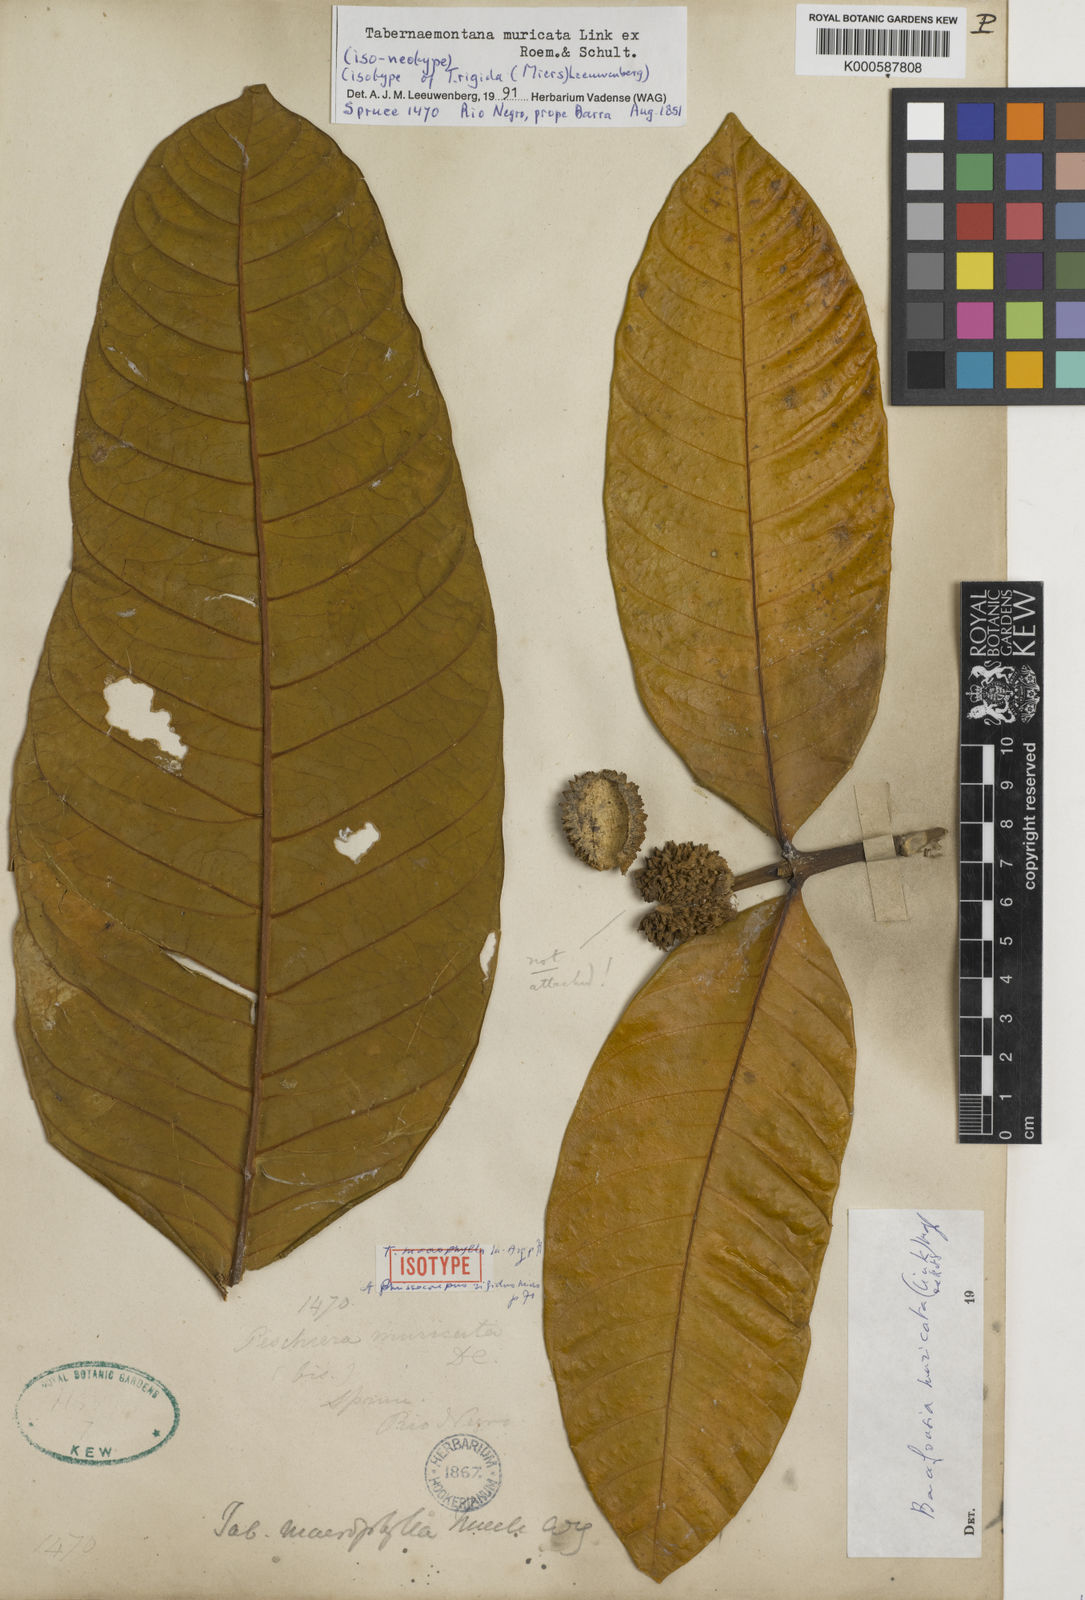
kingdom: Plantae
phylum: Tracheophyta
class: Magnoliopsida
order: Gentianales
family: Apocynaceae
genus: Tabernaemontana
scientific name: Tabernaemontana muricata
